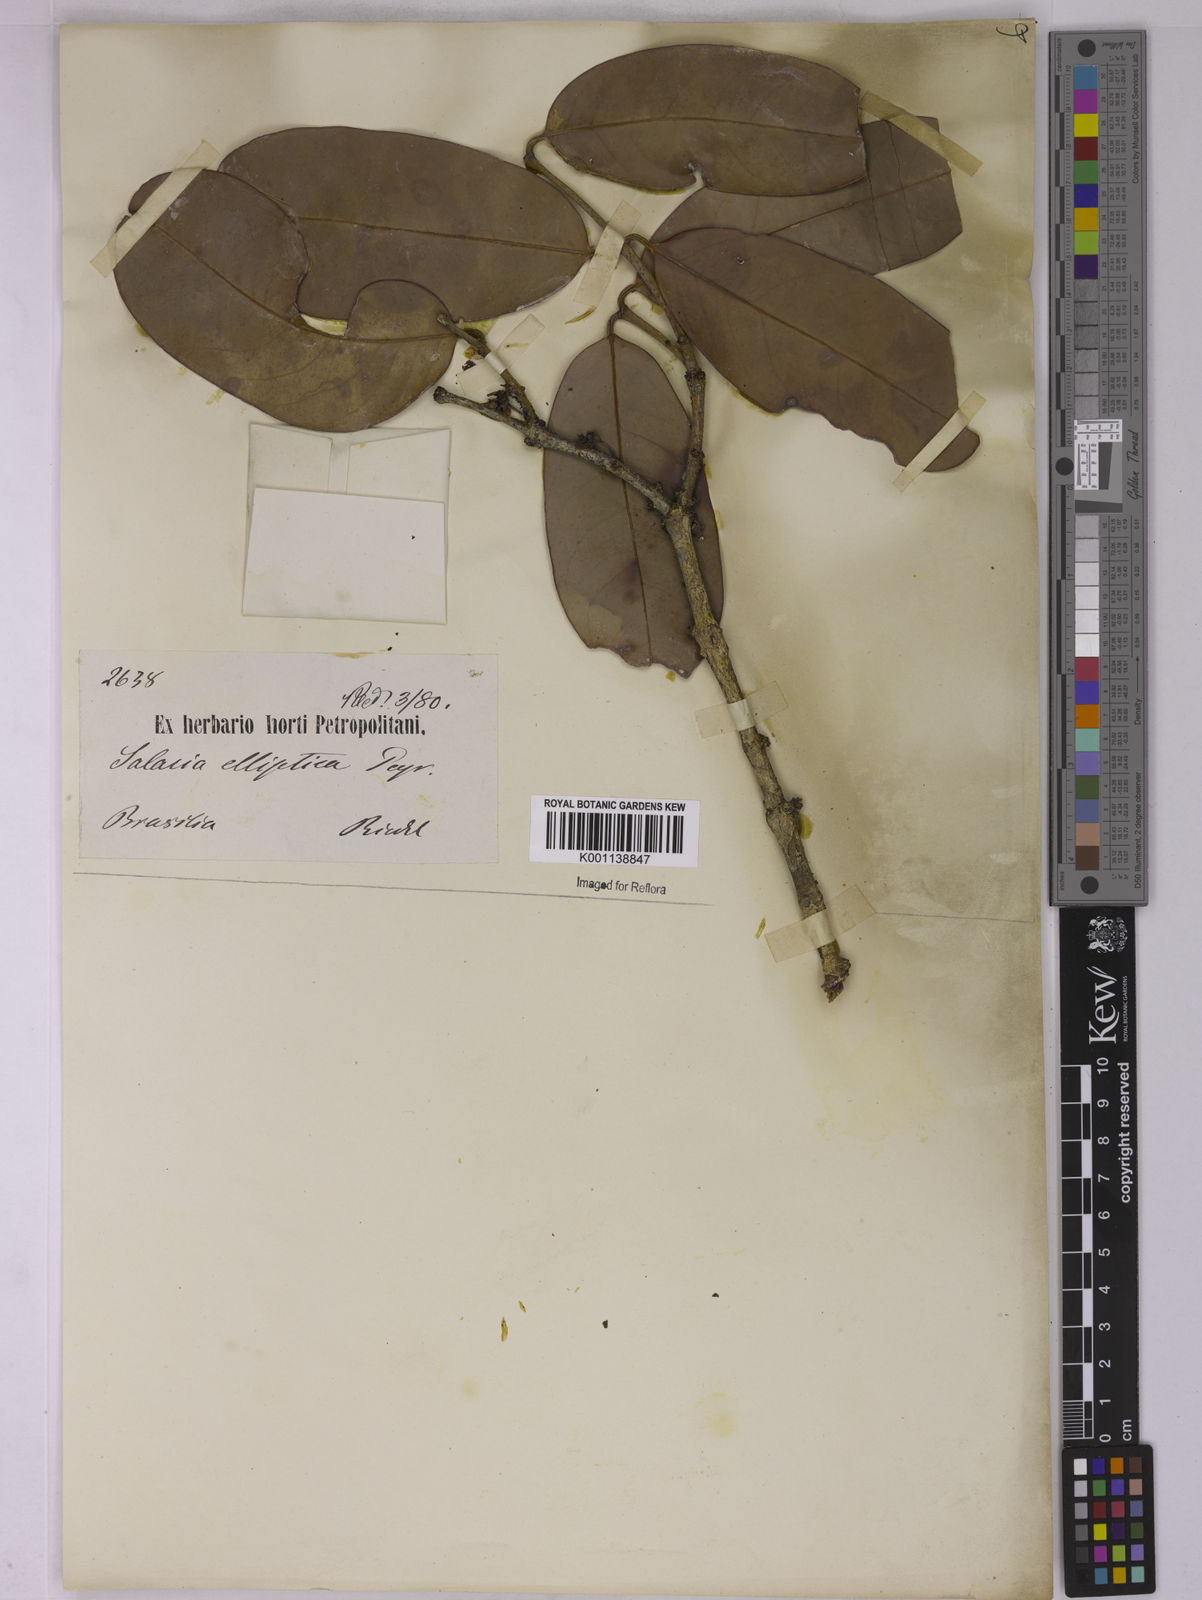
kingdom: Plantae
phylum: Tracheophyta
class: Magnoliopsida
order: Celastrales
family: Celastraceae
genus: Salacia
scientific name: Salacia elliptica
